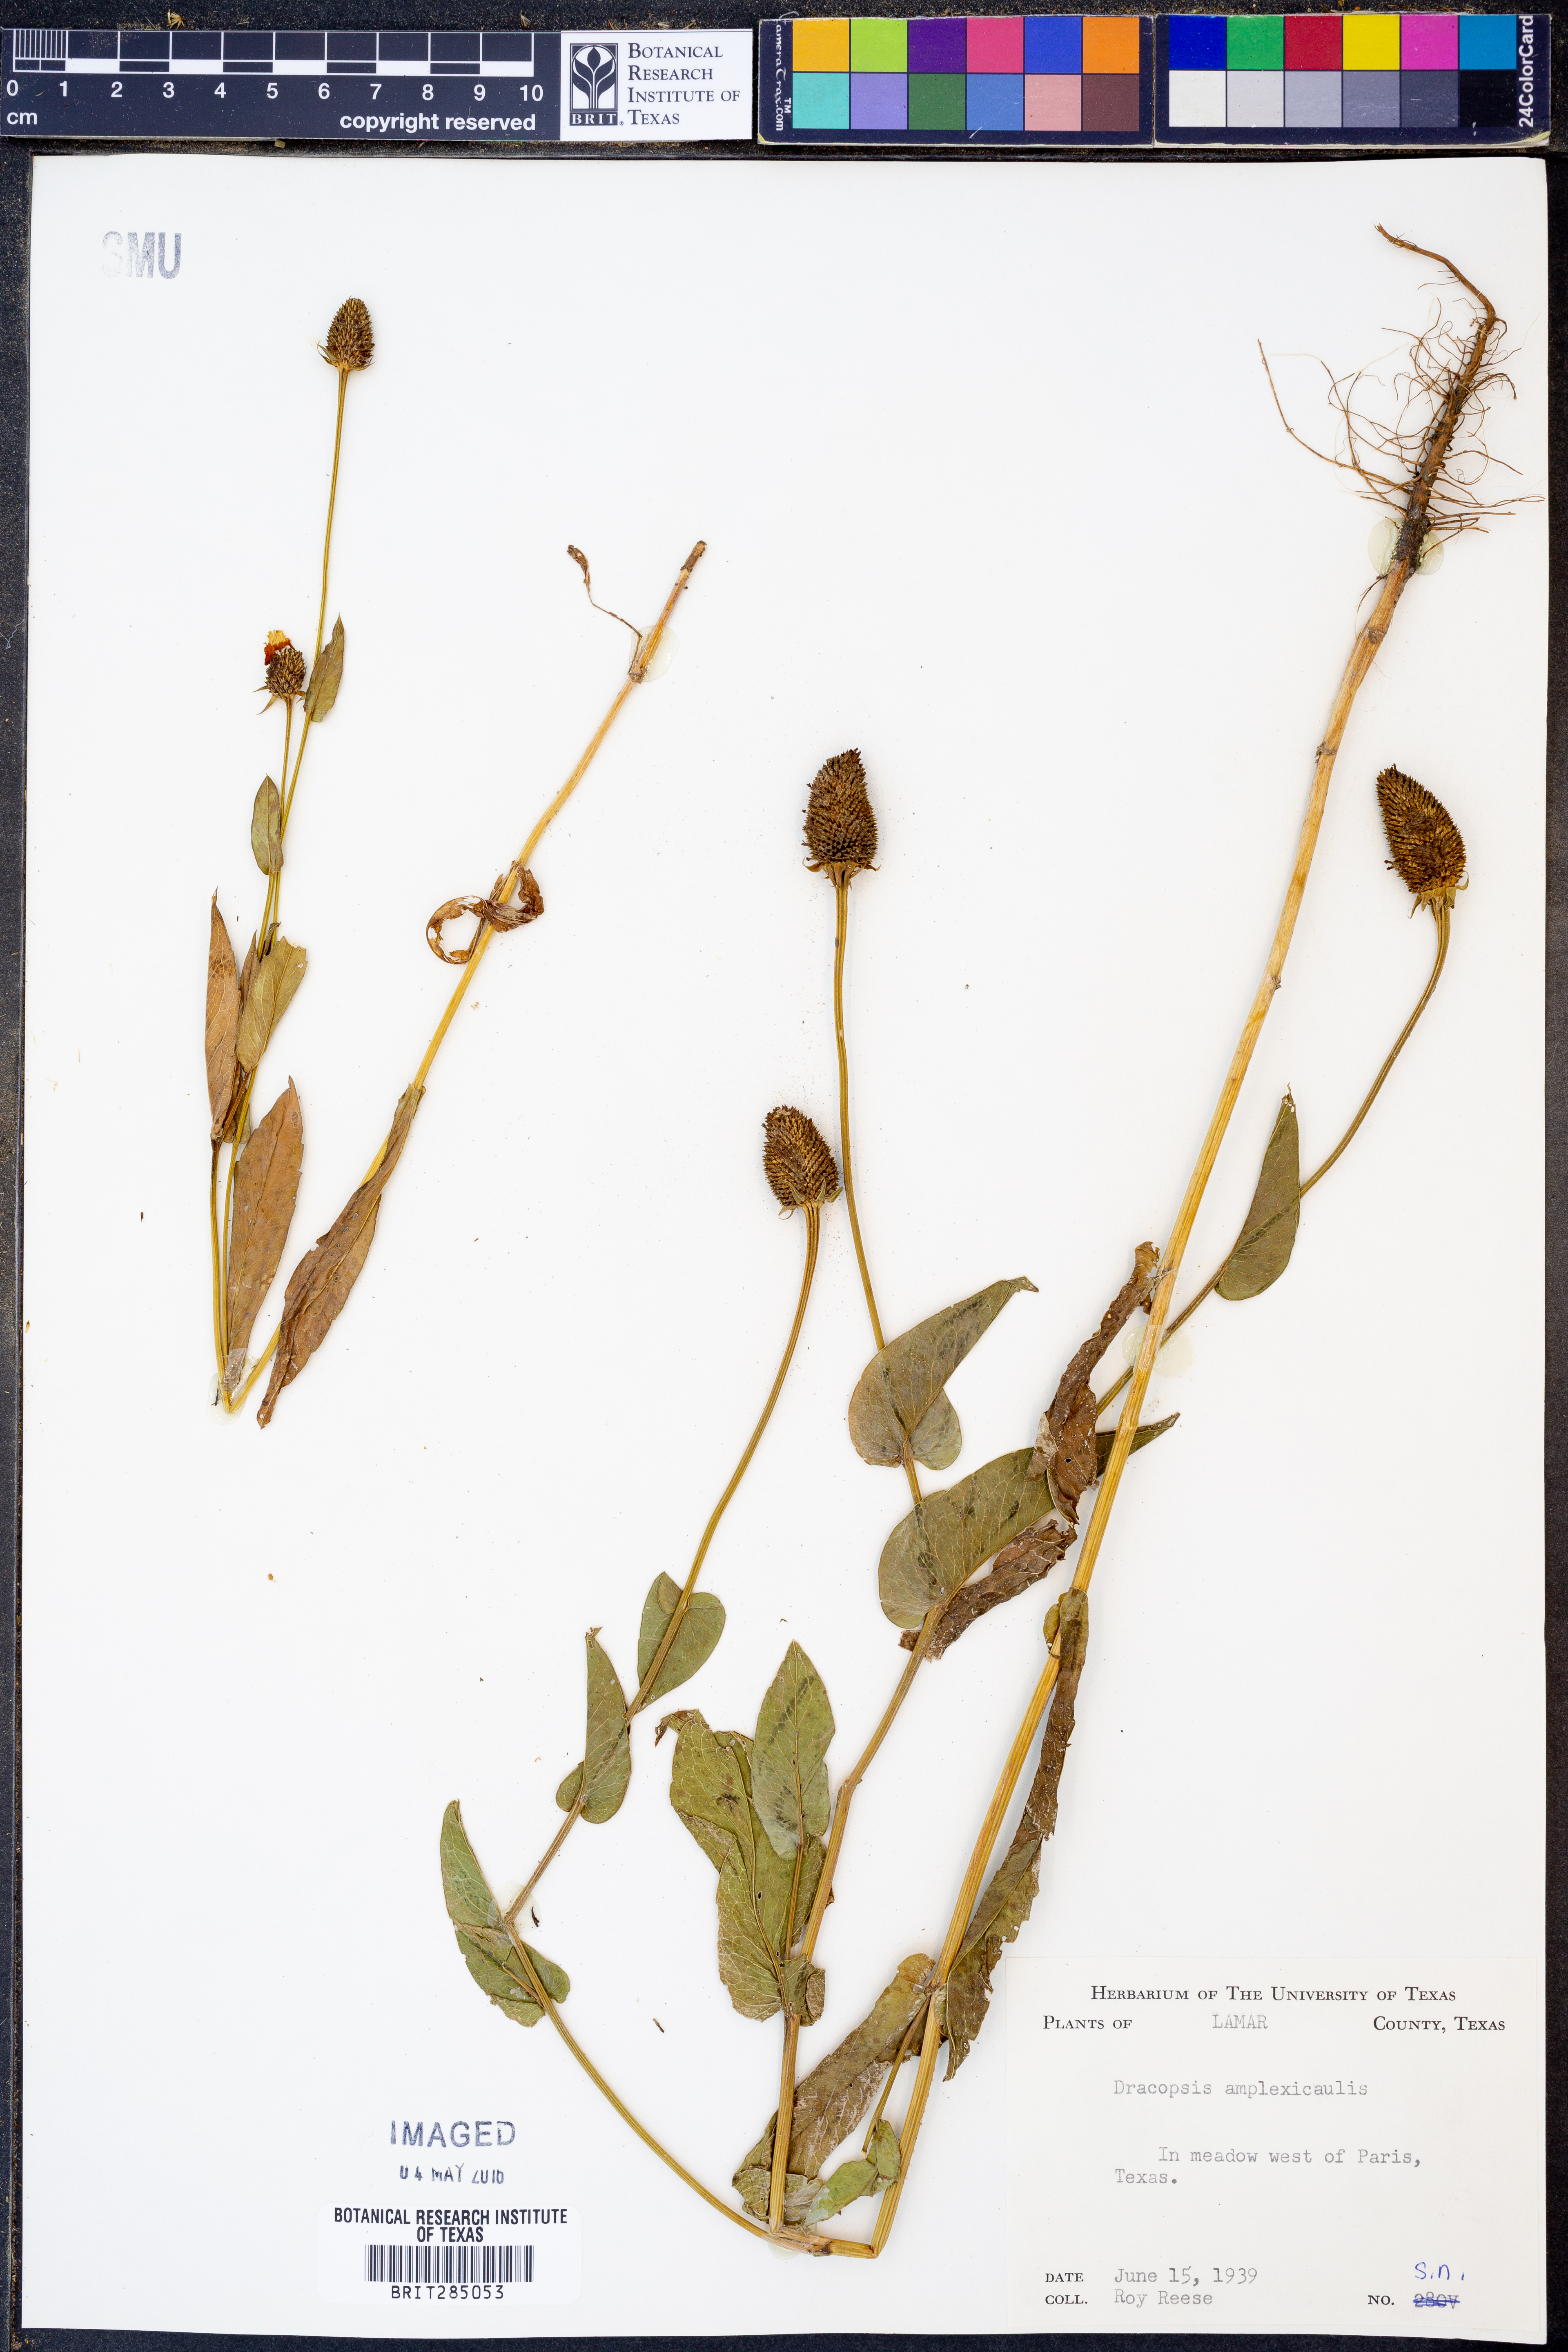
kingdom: Plantae
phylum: Tracheophyta
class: Magnoliopsida
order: Asterales
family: Asteraceae
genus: Rudbeckia
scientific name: Rudbeckia amplexicaulis
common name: Clasping-leaf coneflower
